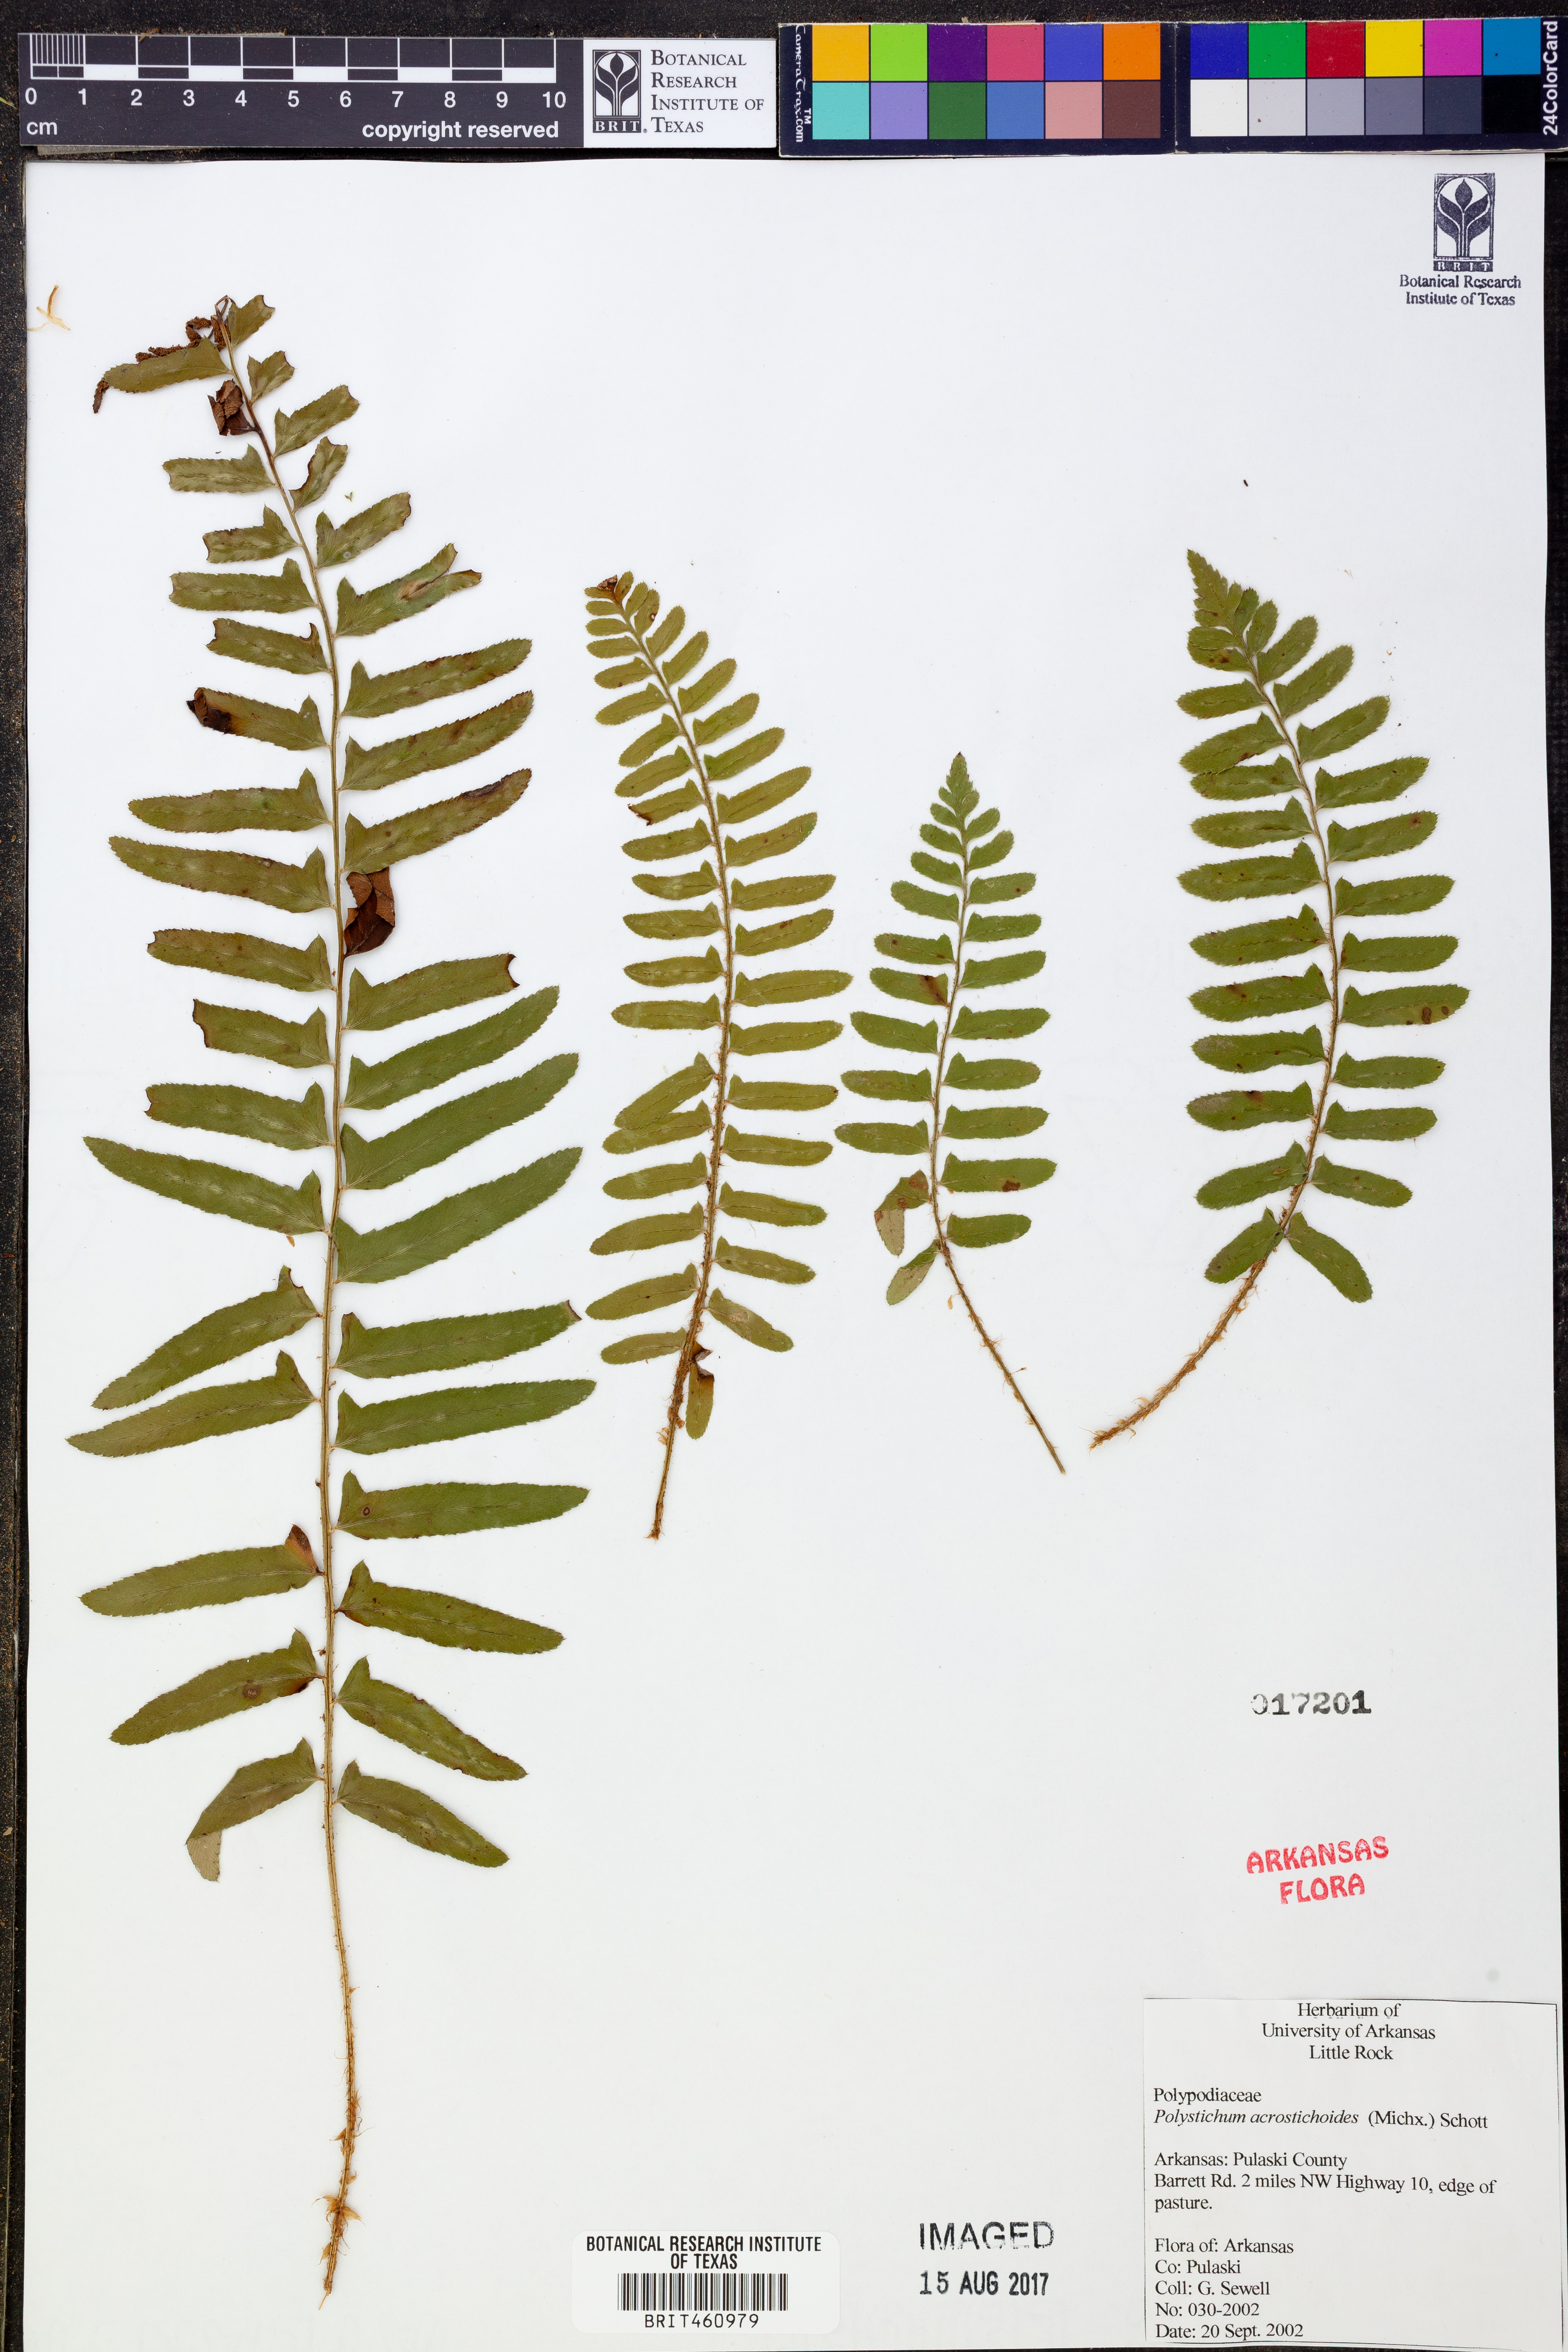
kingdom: Plantae
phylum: Tracheophyta
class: Polypodiopsida
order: Polypodiales
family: Dryopteridaceae
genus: Polystichum
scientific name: Polystichum acrostichoides
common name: Christmas fern
